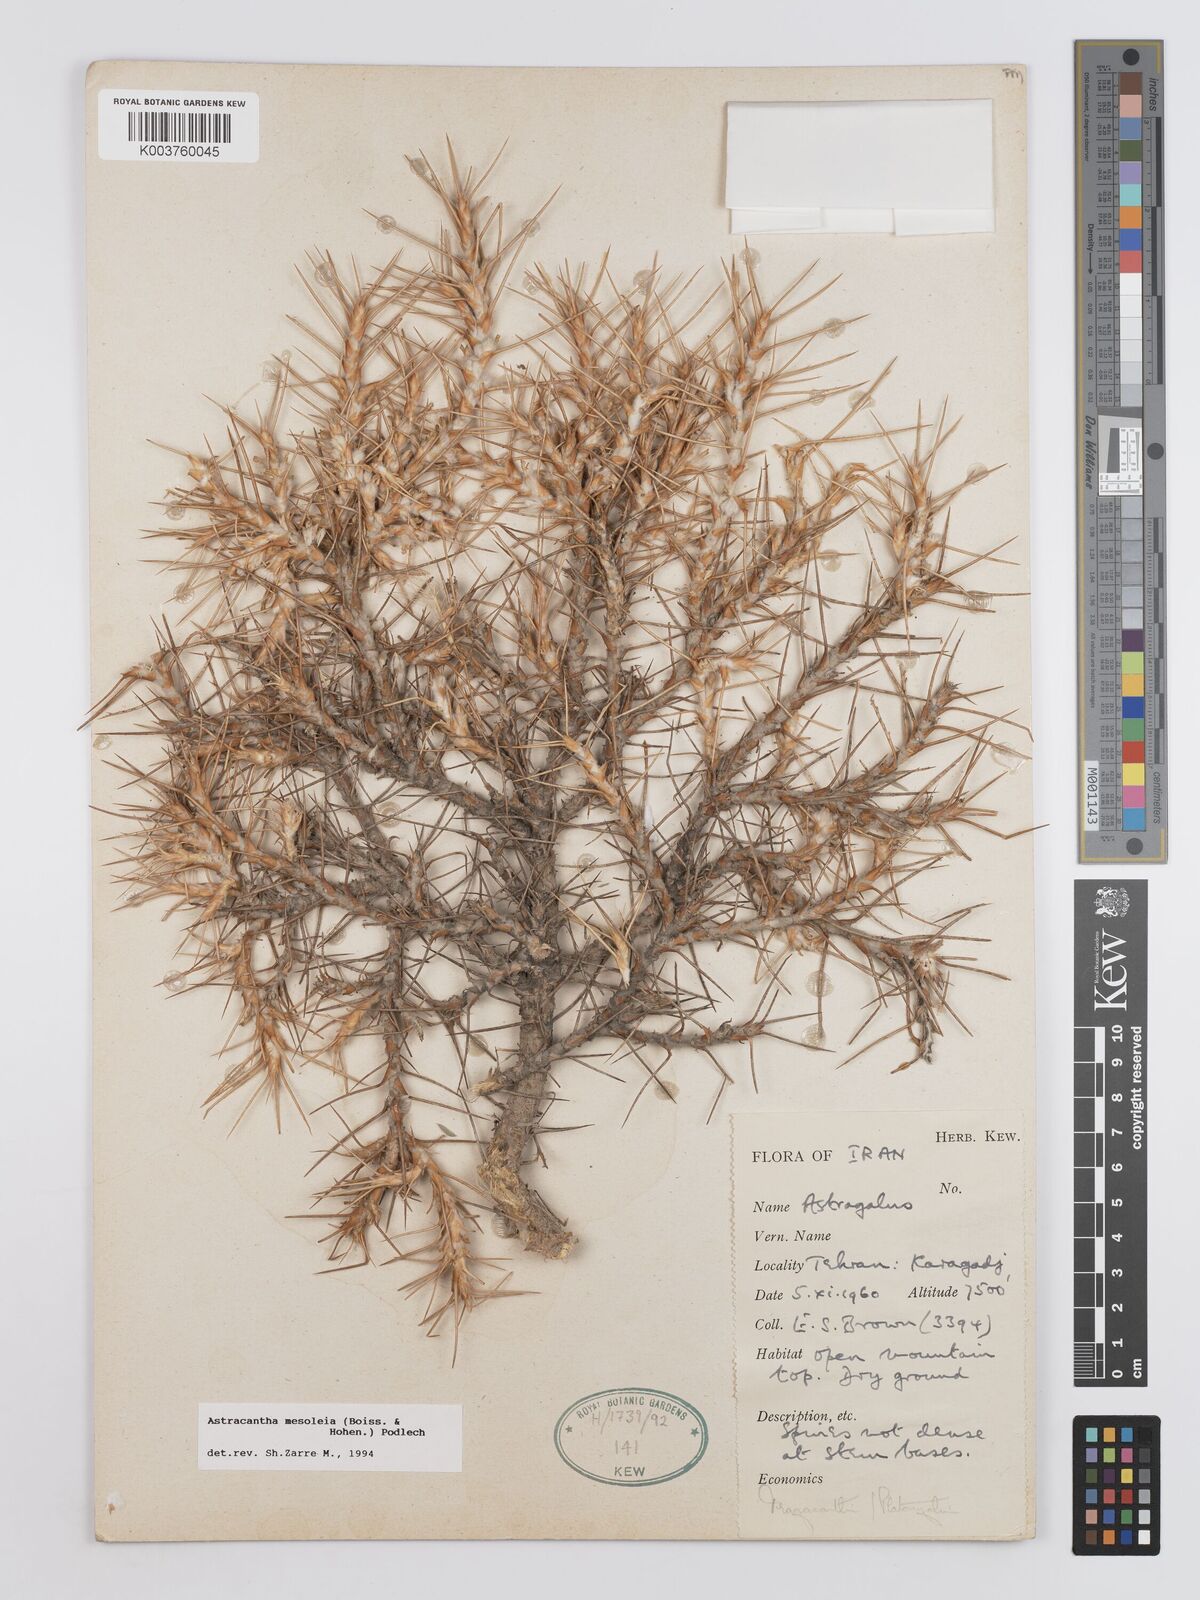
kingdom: Plantae
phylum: Tracheophyta
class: Magnoliopsida
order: Fabales
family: Fabaceae
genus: Astragalus
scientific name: Astragalus
